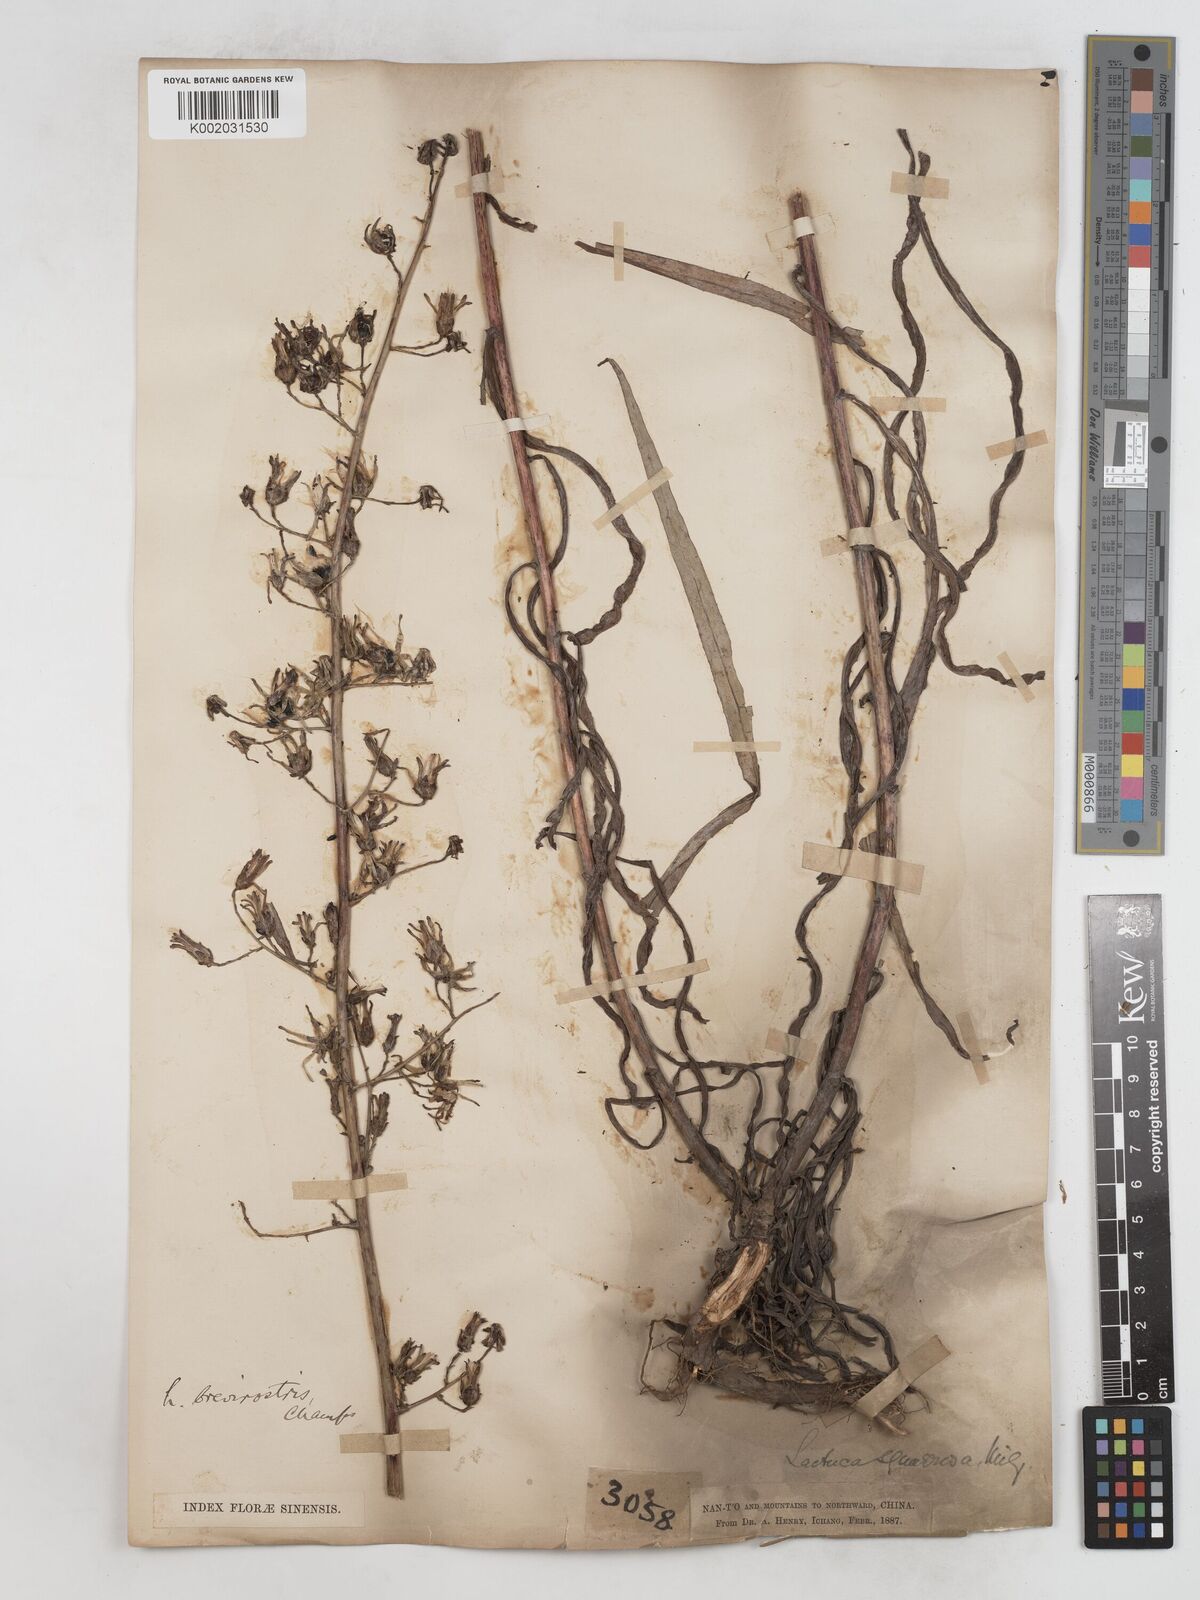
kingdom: Plantae
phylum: Tracheophyta
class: Magnoliopsida
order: Asterales
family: Asteraceae
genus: Lactuca
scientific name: Lactuca indica
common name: Wild lettuce
